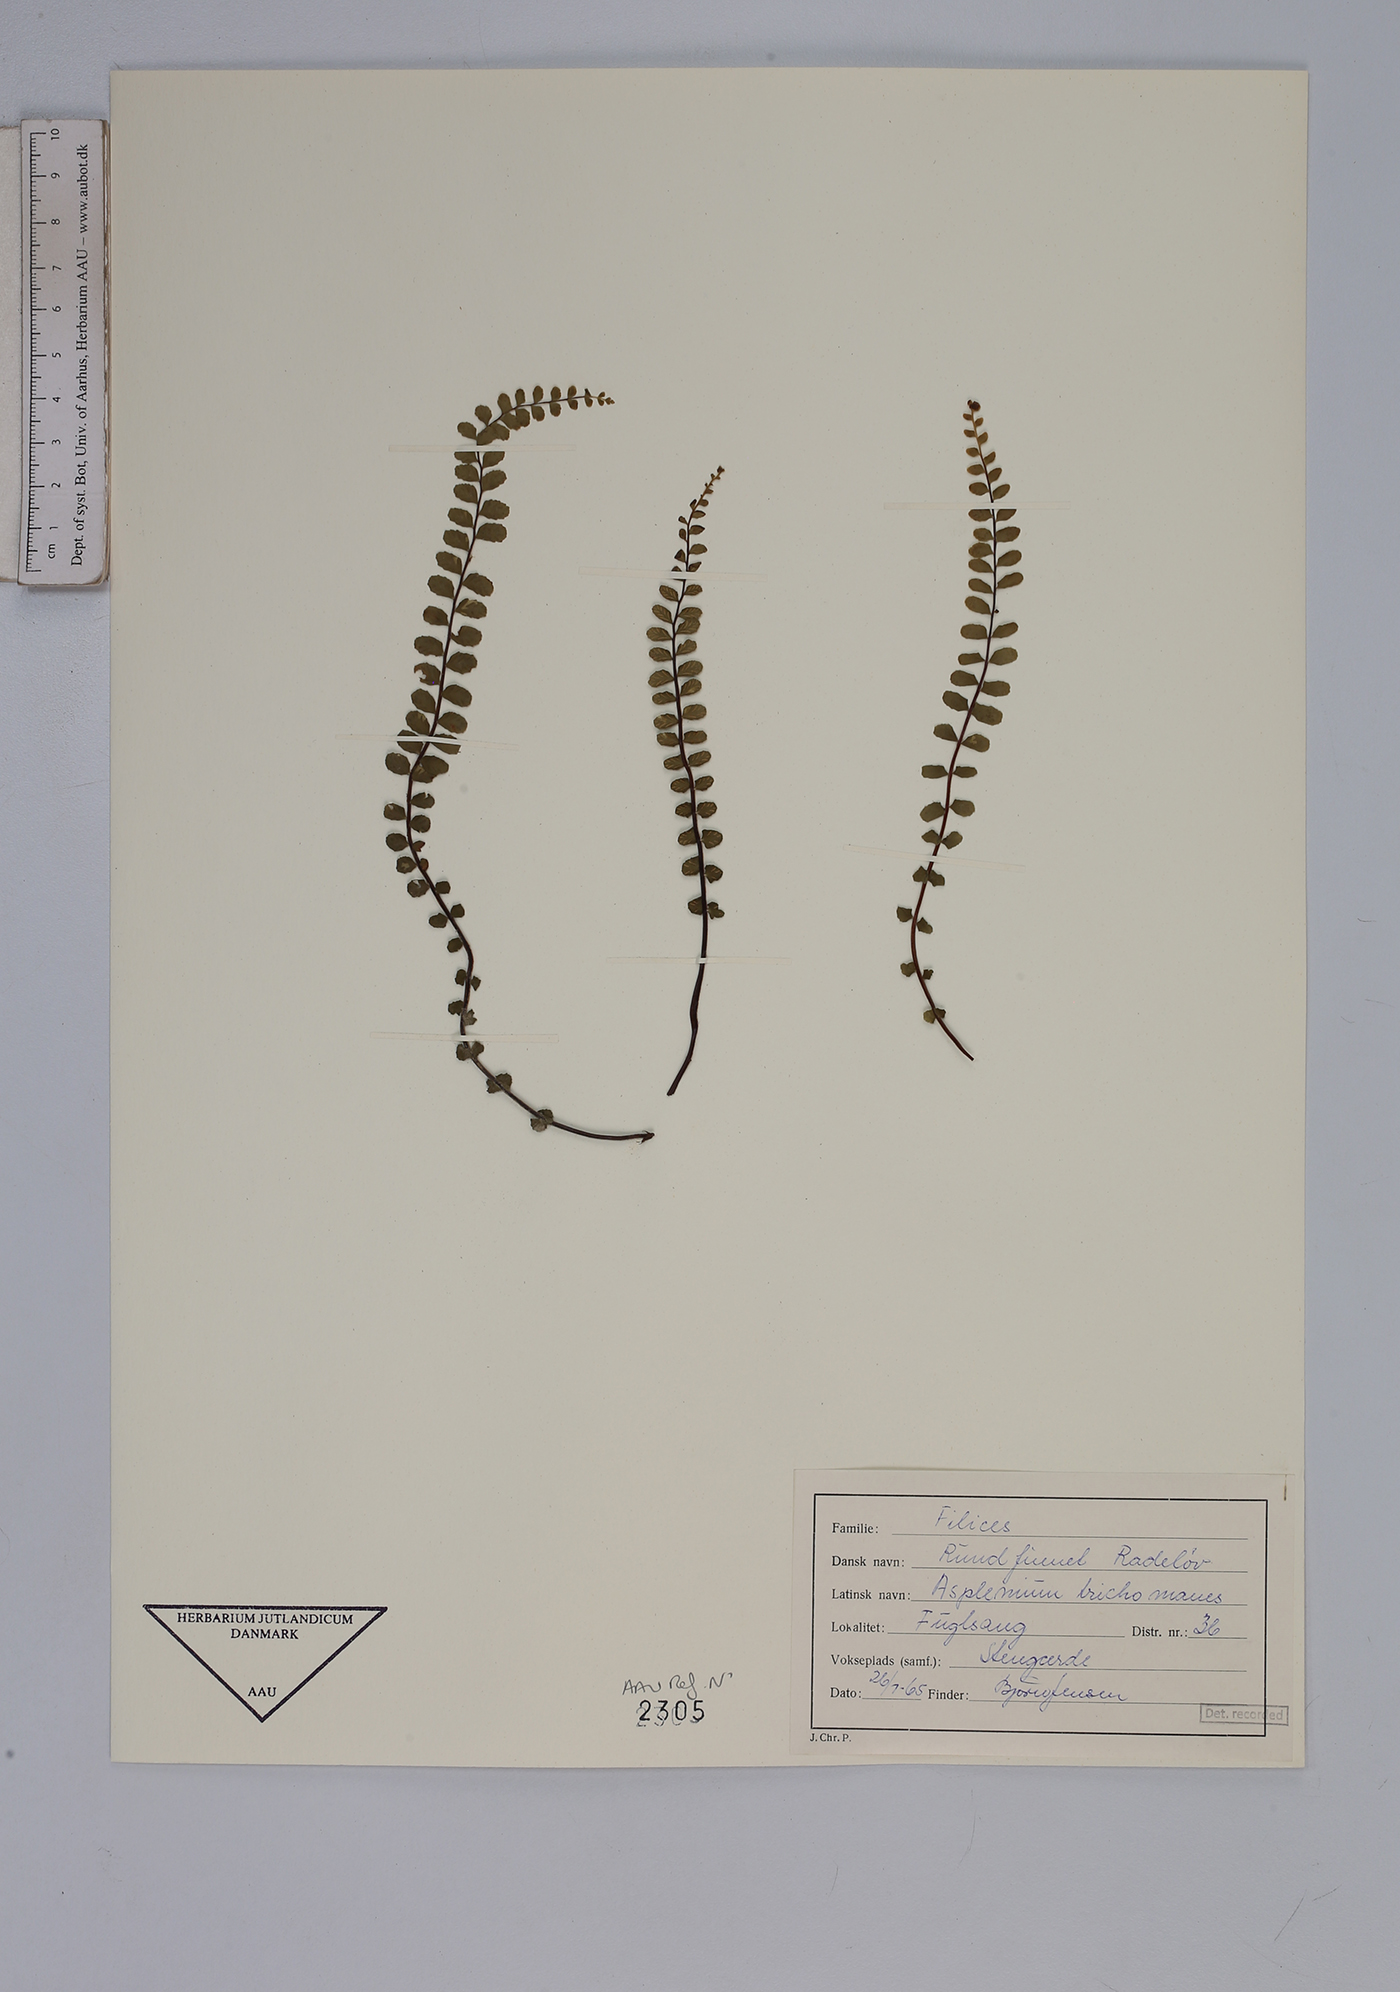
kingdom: Plantae
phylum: Tracheophyta
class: Polypodiopsida
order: Polypodiales
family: Aspleniaceae
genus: Asplenium
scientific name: Asplenium trichomanes
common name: Maidenhair spleenwort
